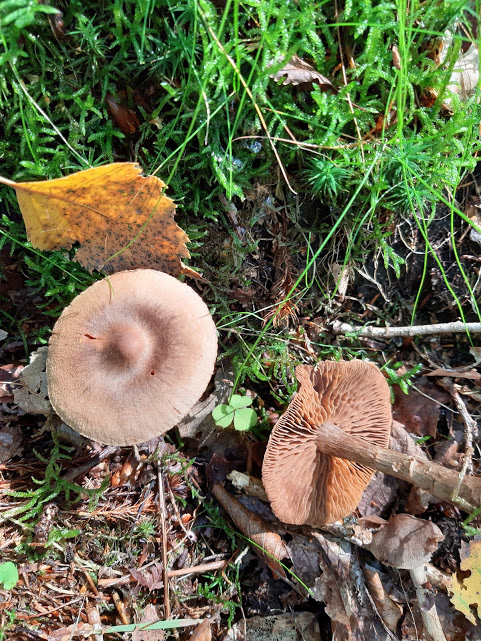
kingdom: Fungi
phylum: Basidiomycota
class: Agaricomycetes
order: Agaricales
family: Cortinariaceae
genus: Cortinarius
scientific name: Cortinarius
